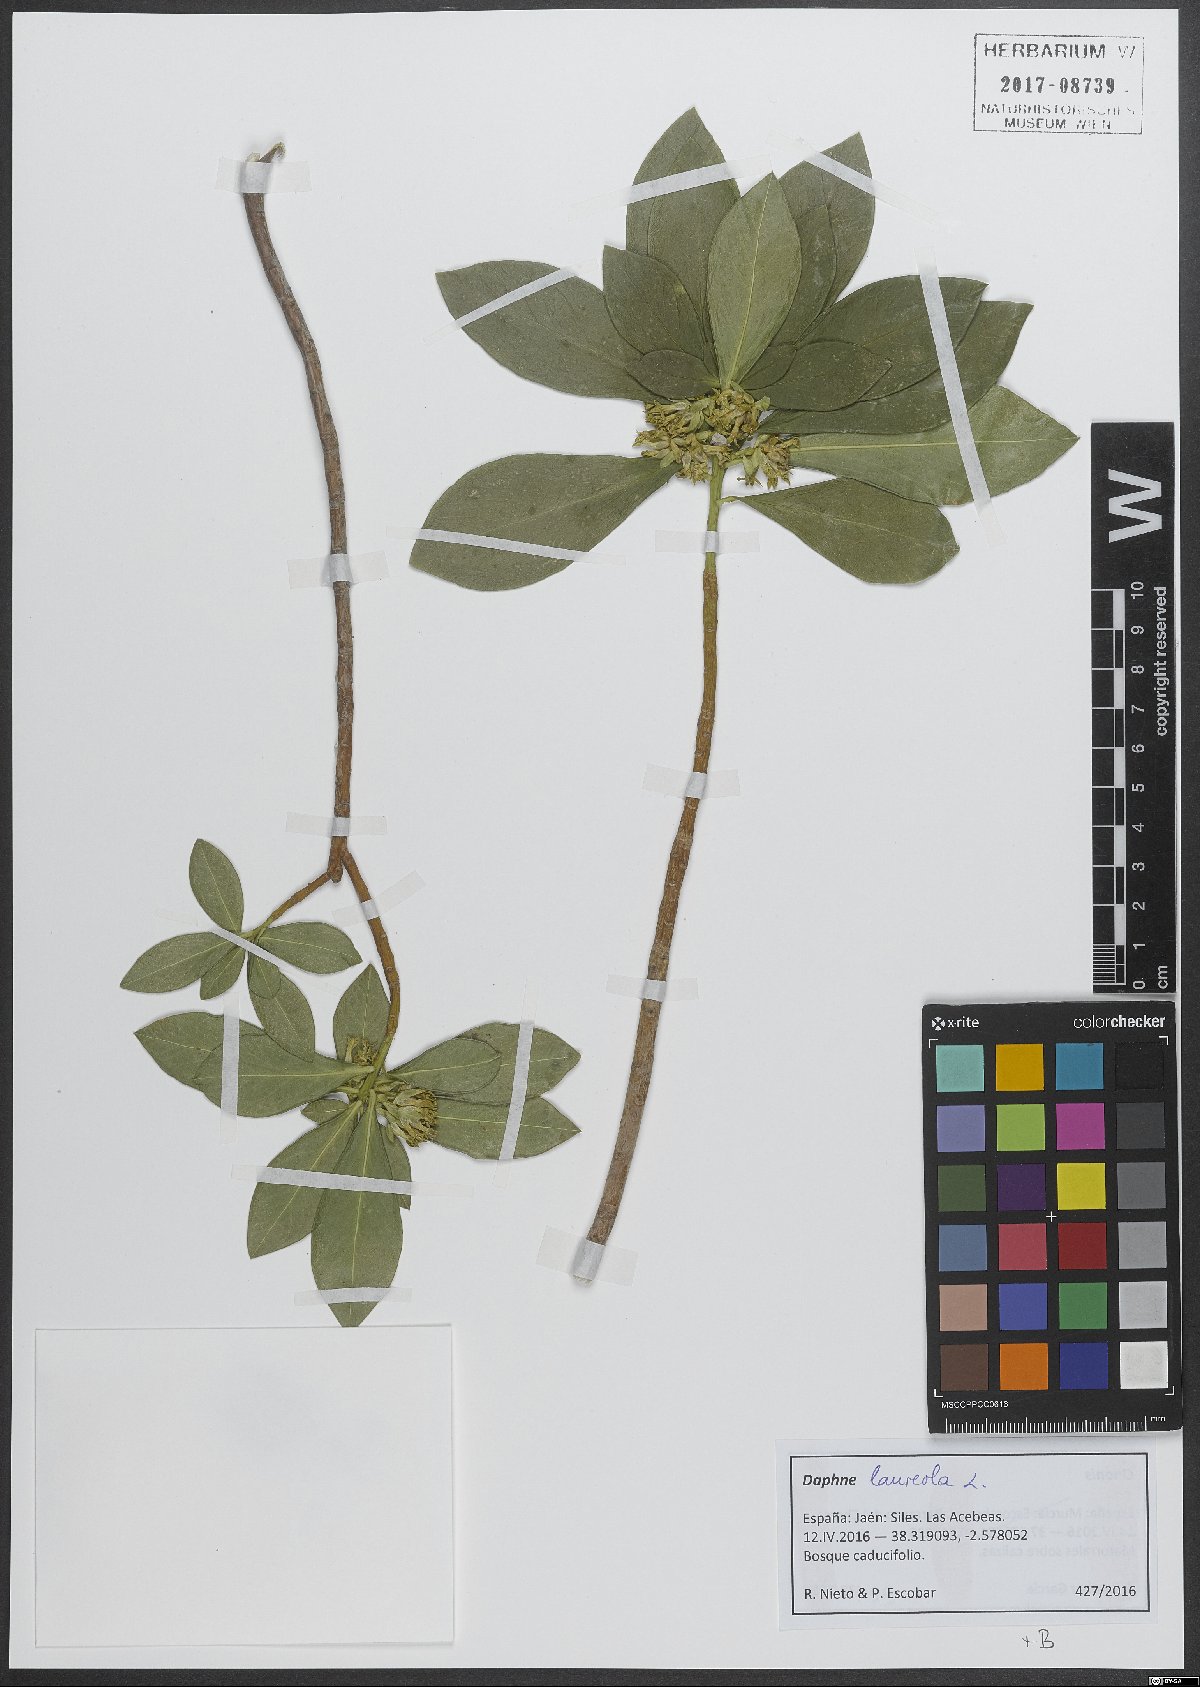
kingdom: Plantae
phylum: Tracheophyta
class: Magnoliopsida
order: Malvales
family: Thymelaeaceae
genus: Daphne
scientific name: Daphne laureola
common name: Spurge-laurel
